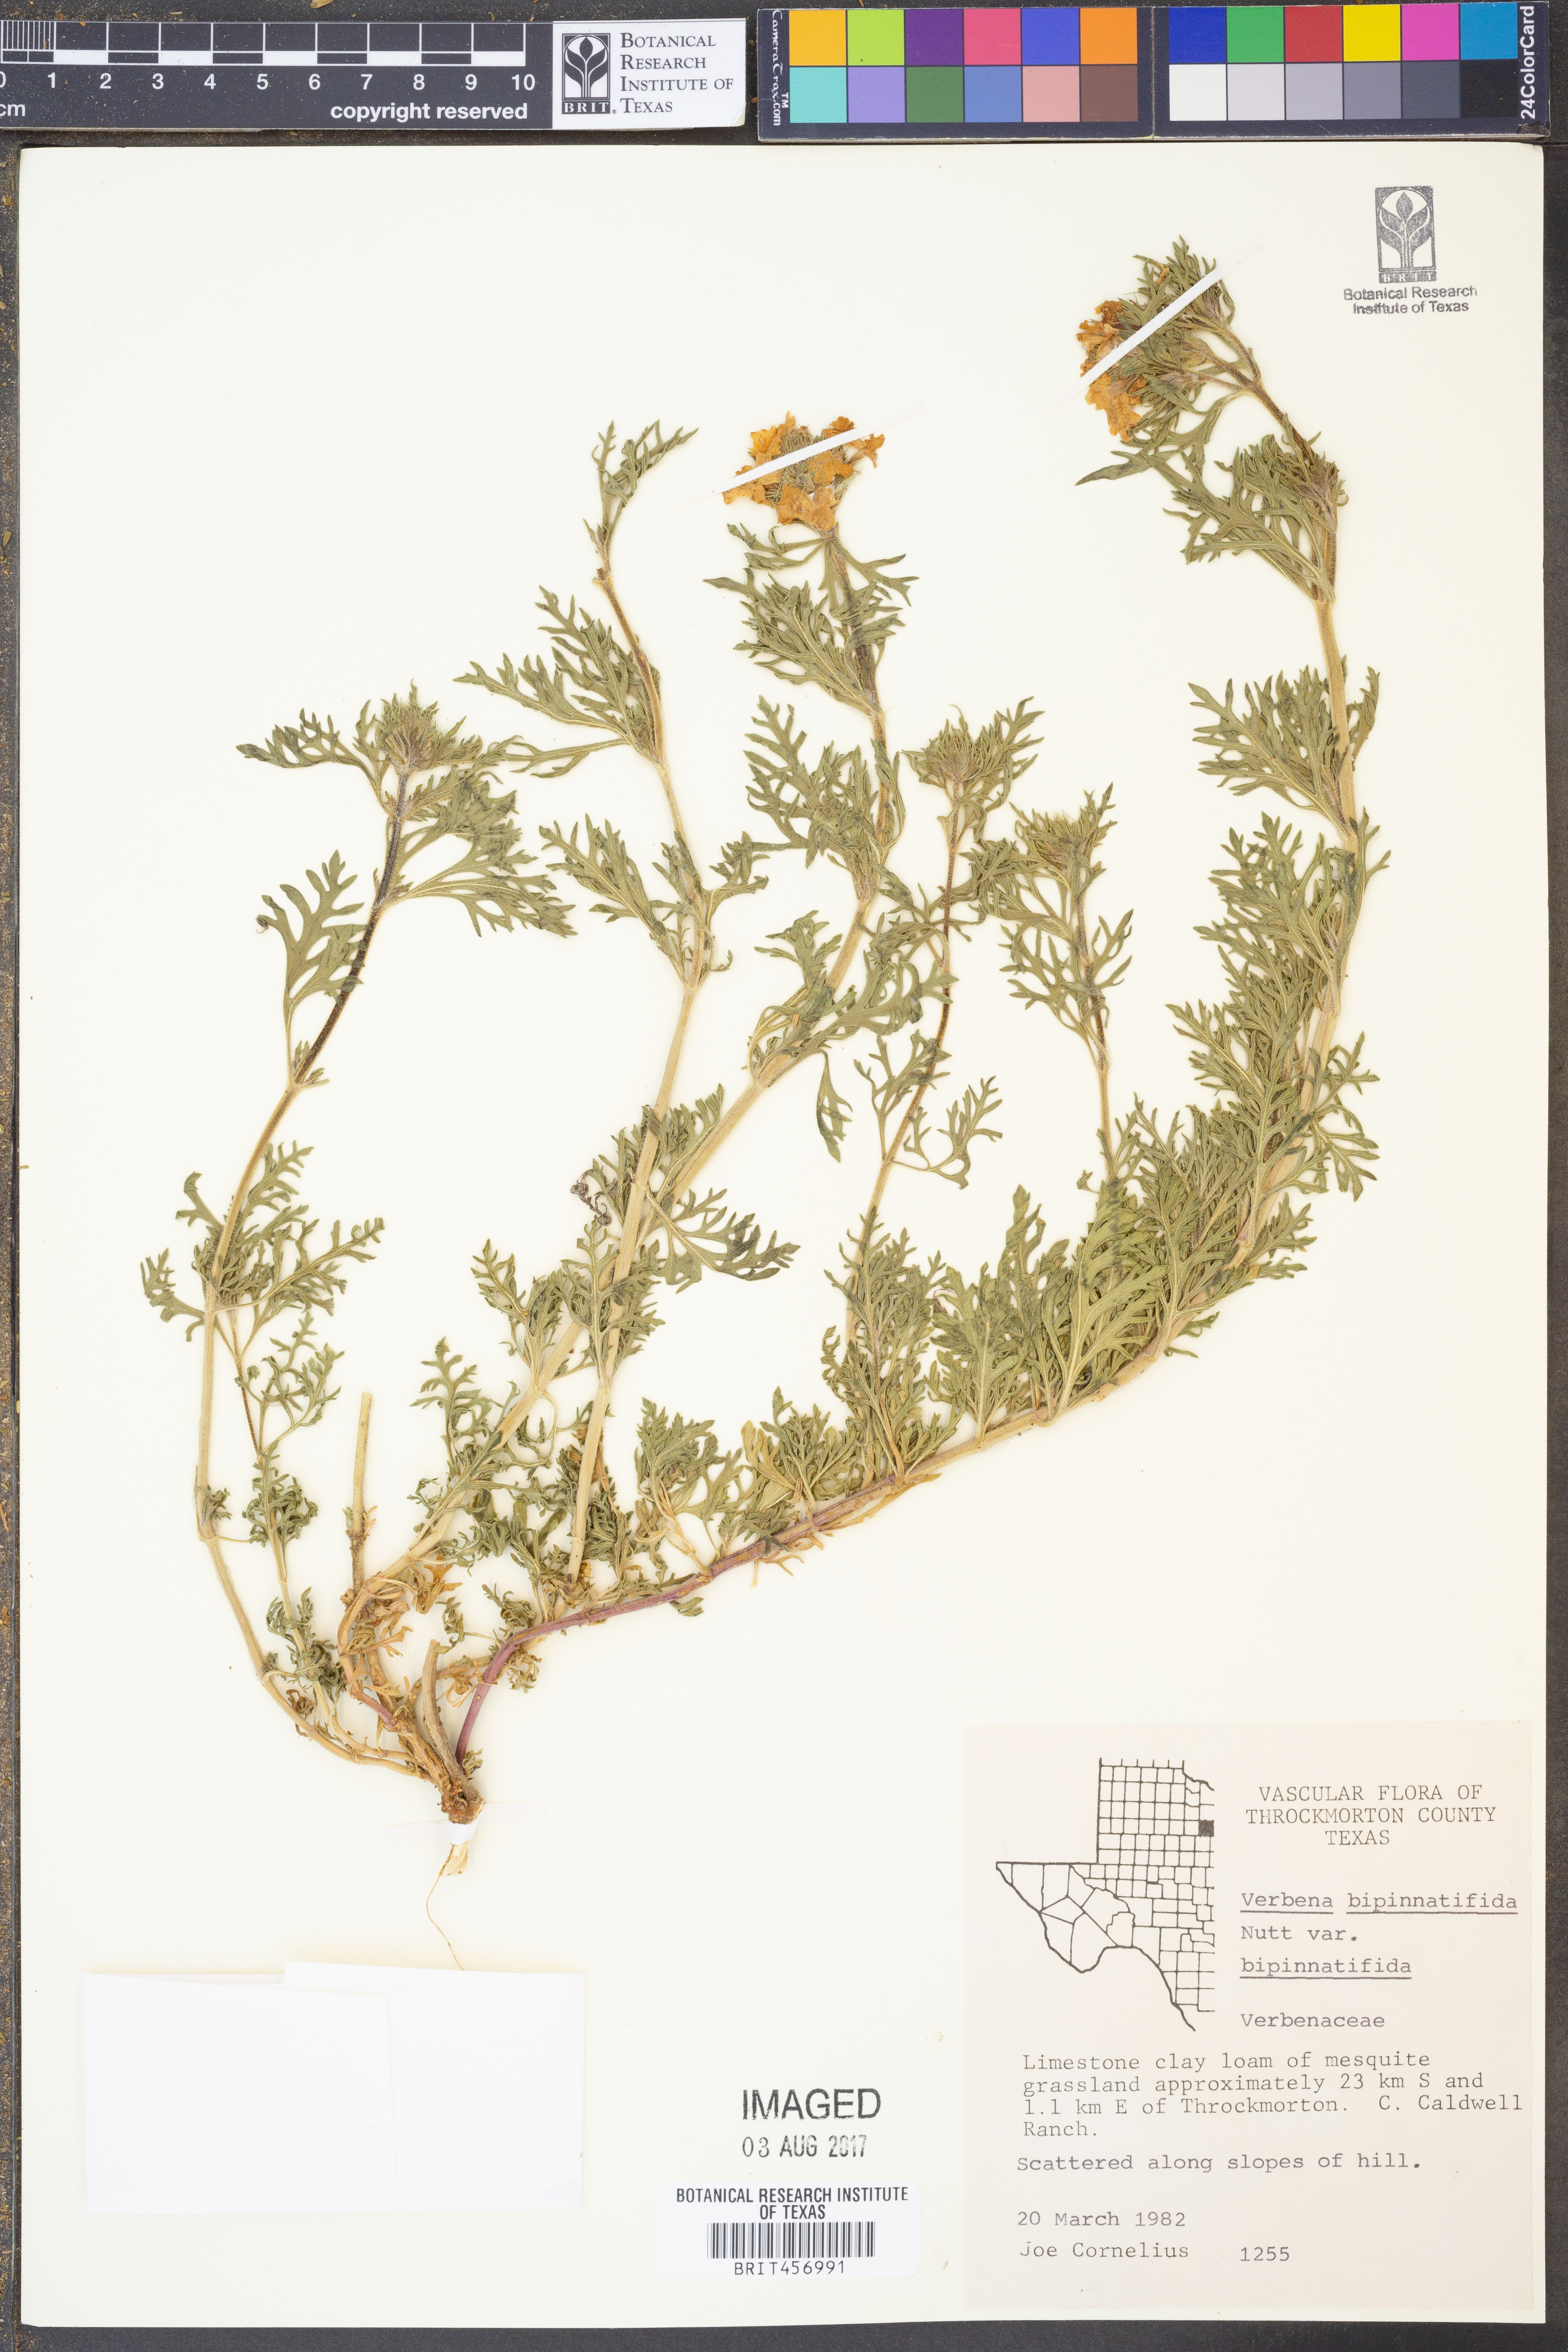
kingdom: Plantae
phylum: Tracheophyta
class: Magnoliopsida
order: Lamiales
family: Verbenaceae
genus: Verbena
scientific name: Verbena bipinnatifida
